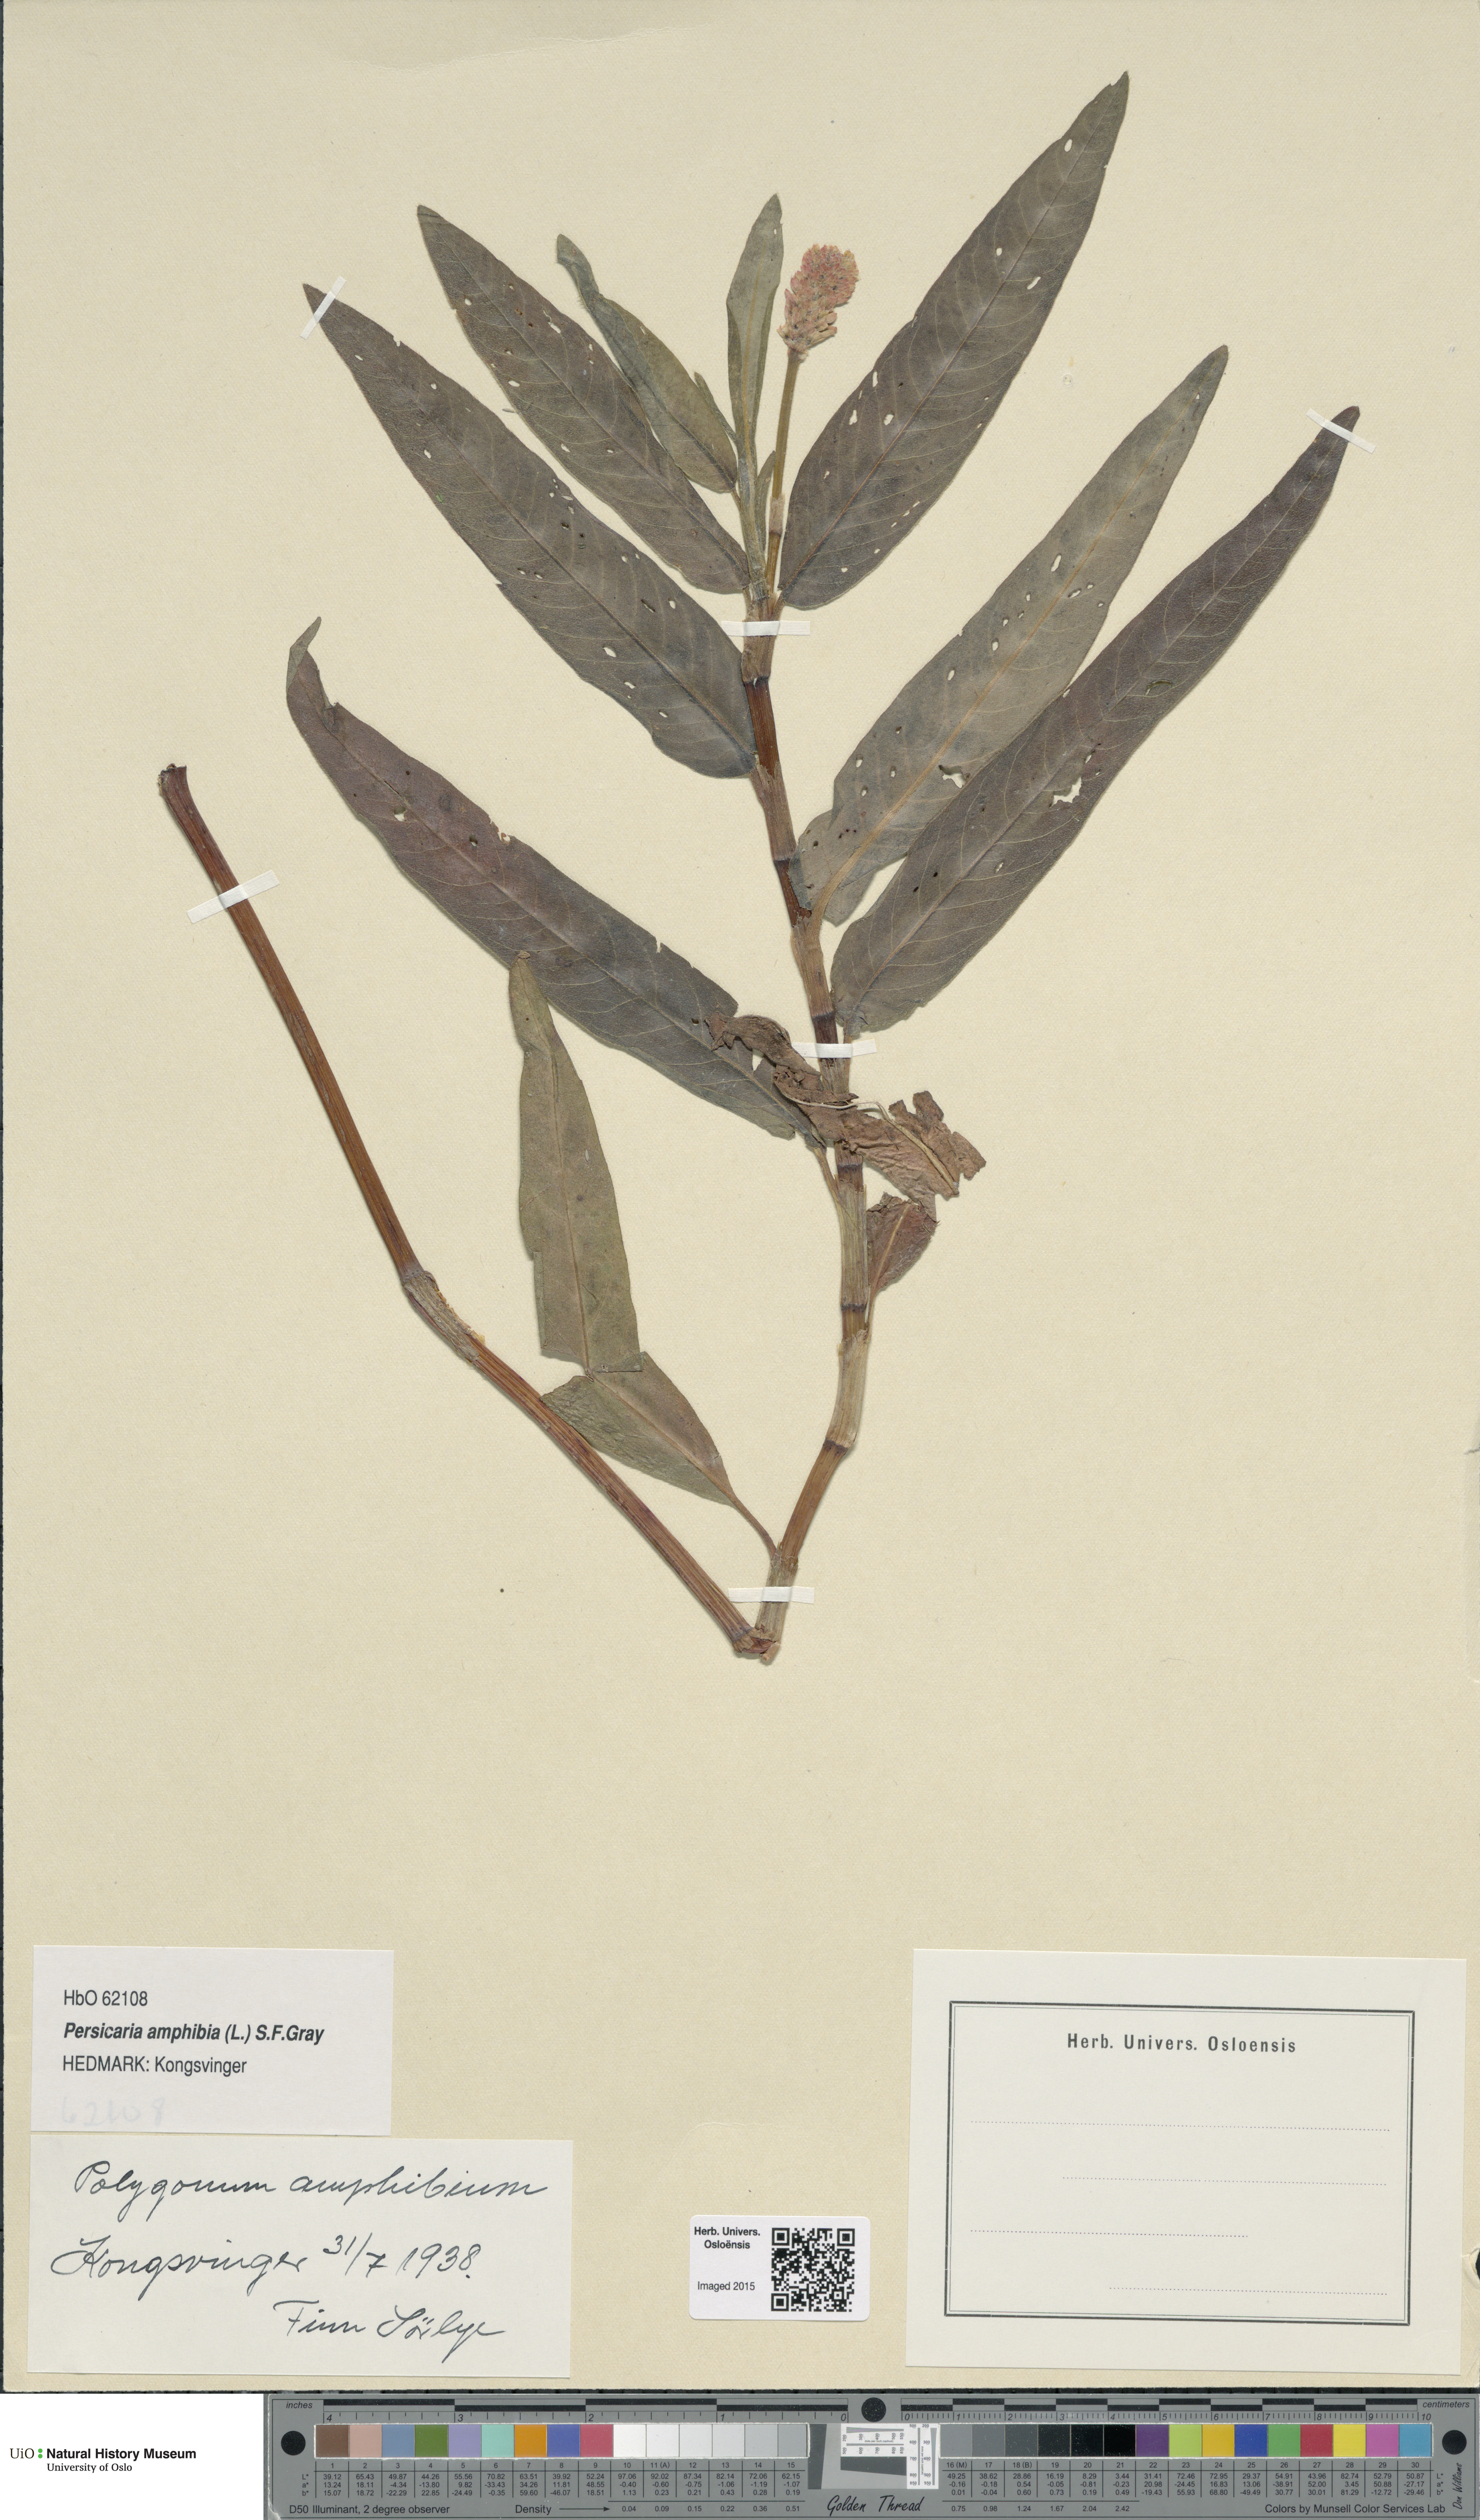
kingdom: Plantae
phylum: Tracheophyta
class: Magnoliopsida
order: Caryophyllales
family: Polygonaceae
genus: Persicaria
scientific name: Persicaria amphibia
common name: Amphibious bistort
